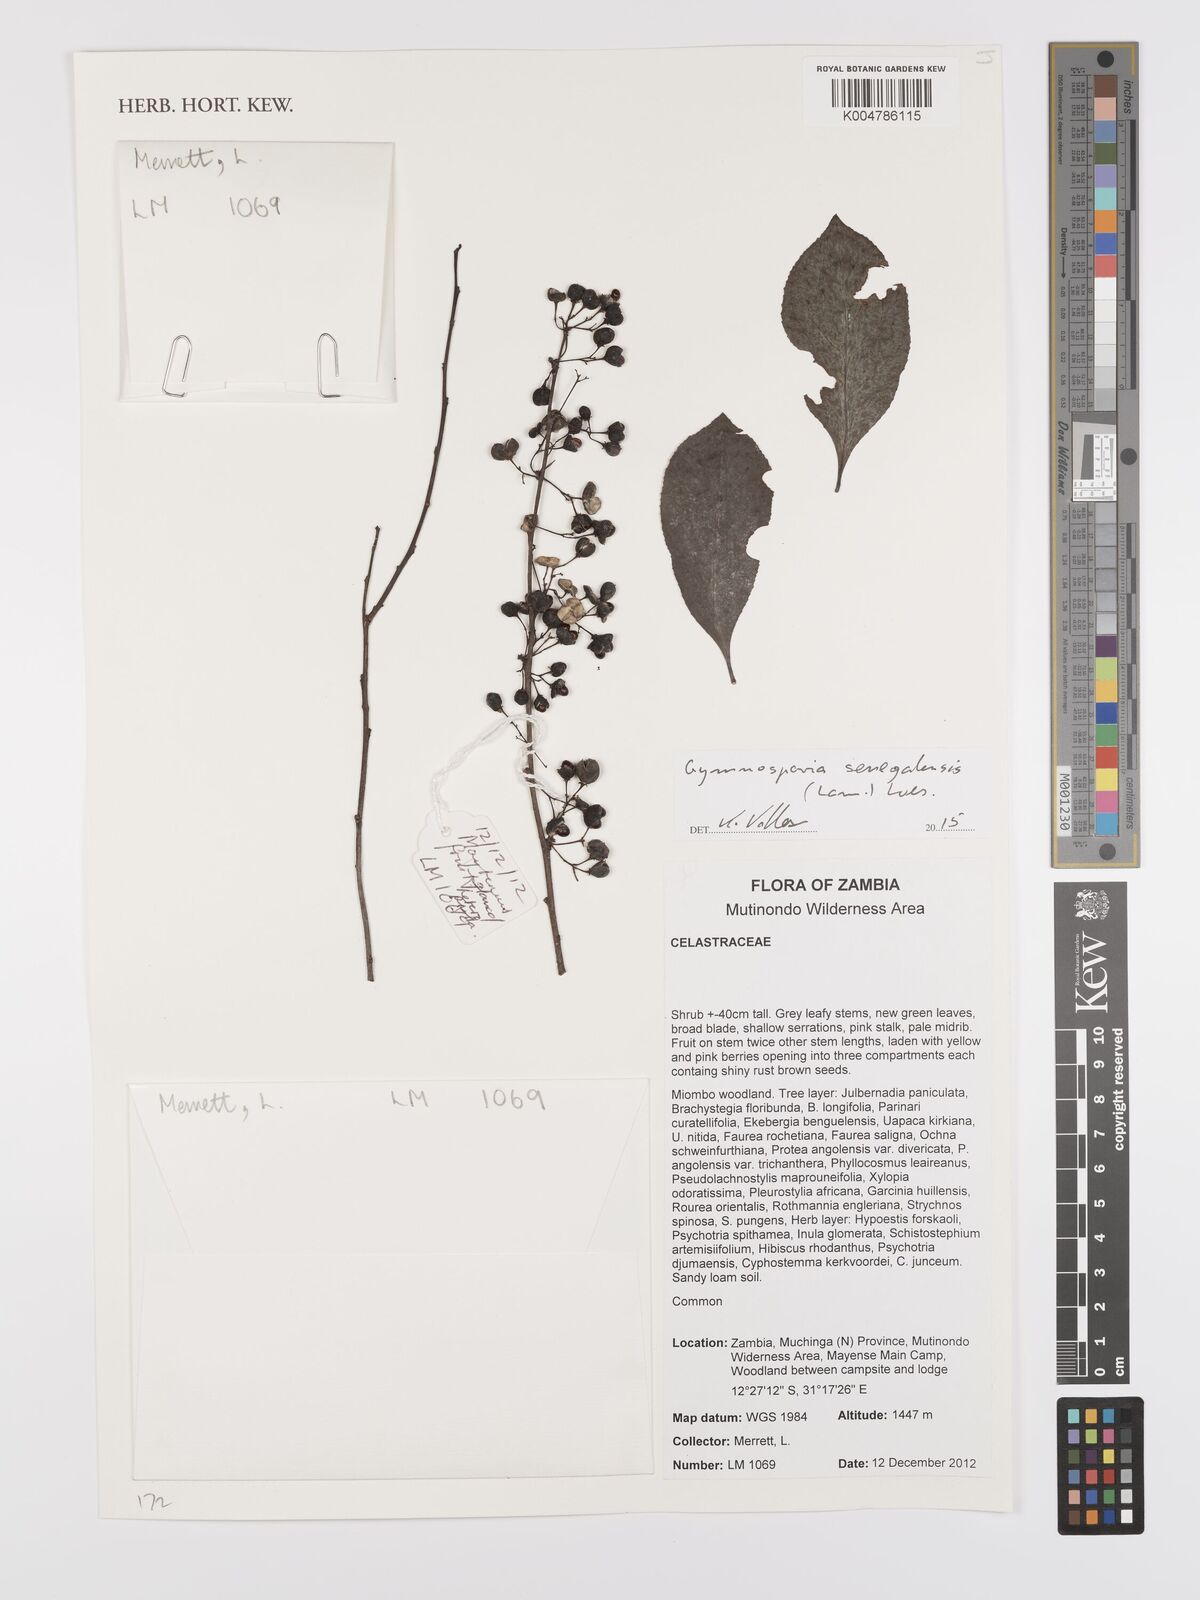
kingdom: Plantae
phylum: Tracheophyta
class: Magnoliopsida
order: Celastrales
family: Celastraceae
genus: Gymnosporia
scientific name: Gymnosporia senegalensis
